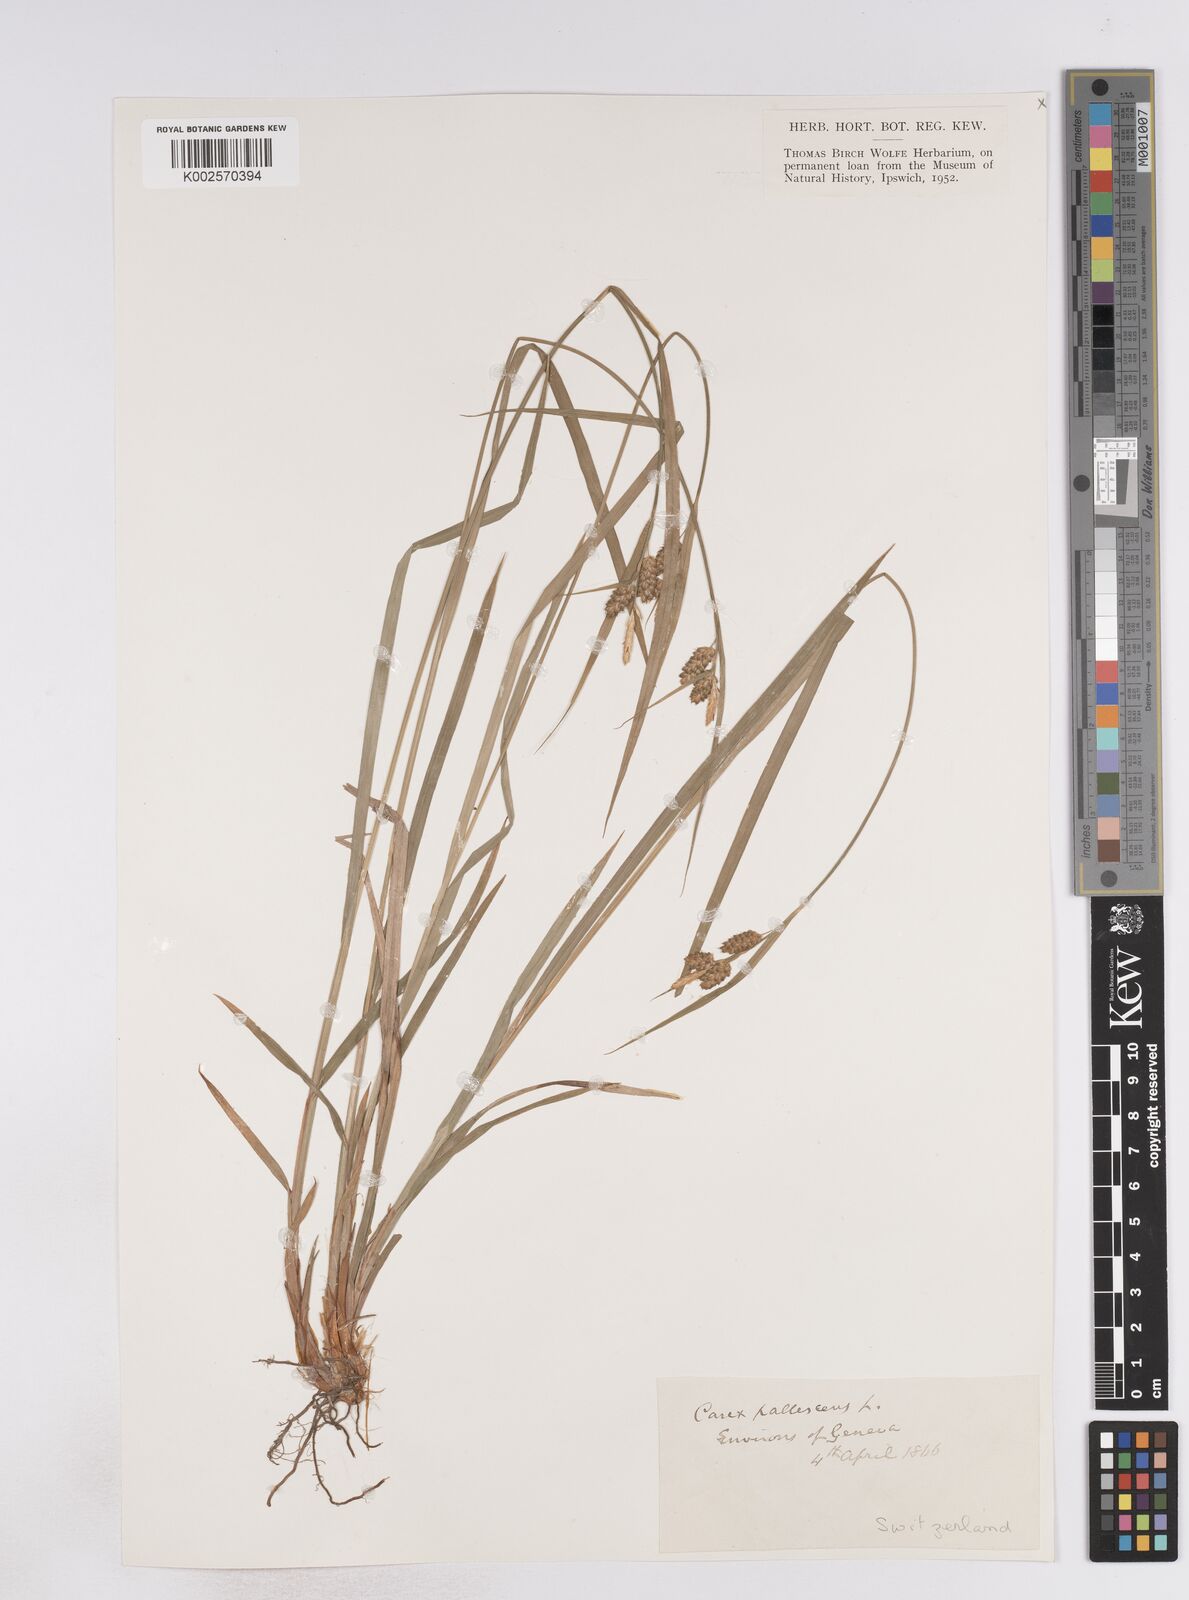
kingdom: Plantae
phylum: Tracheophyta
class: Liliopsida
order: Poales
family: Cyperaceae
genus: Carex
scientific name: Carex pallescens
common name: Pale sedge
